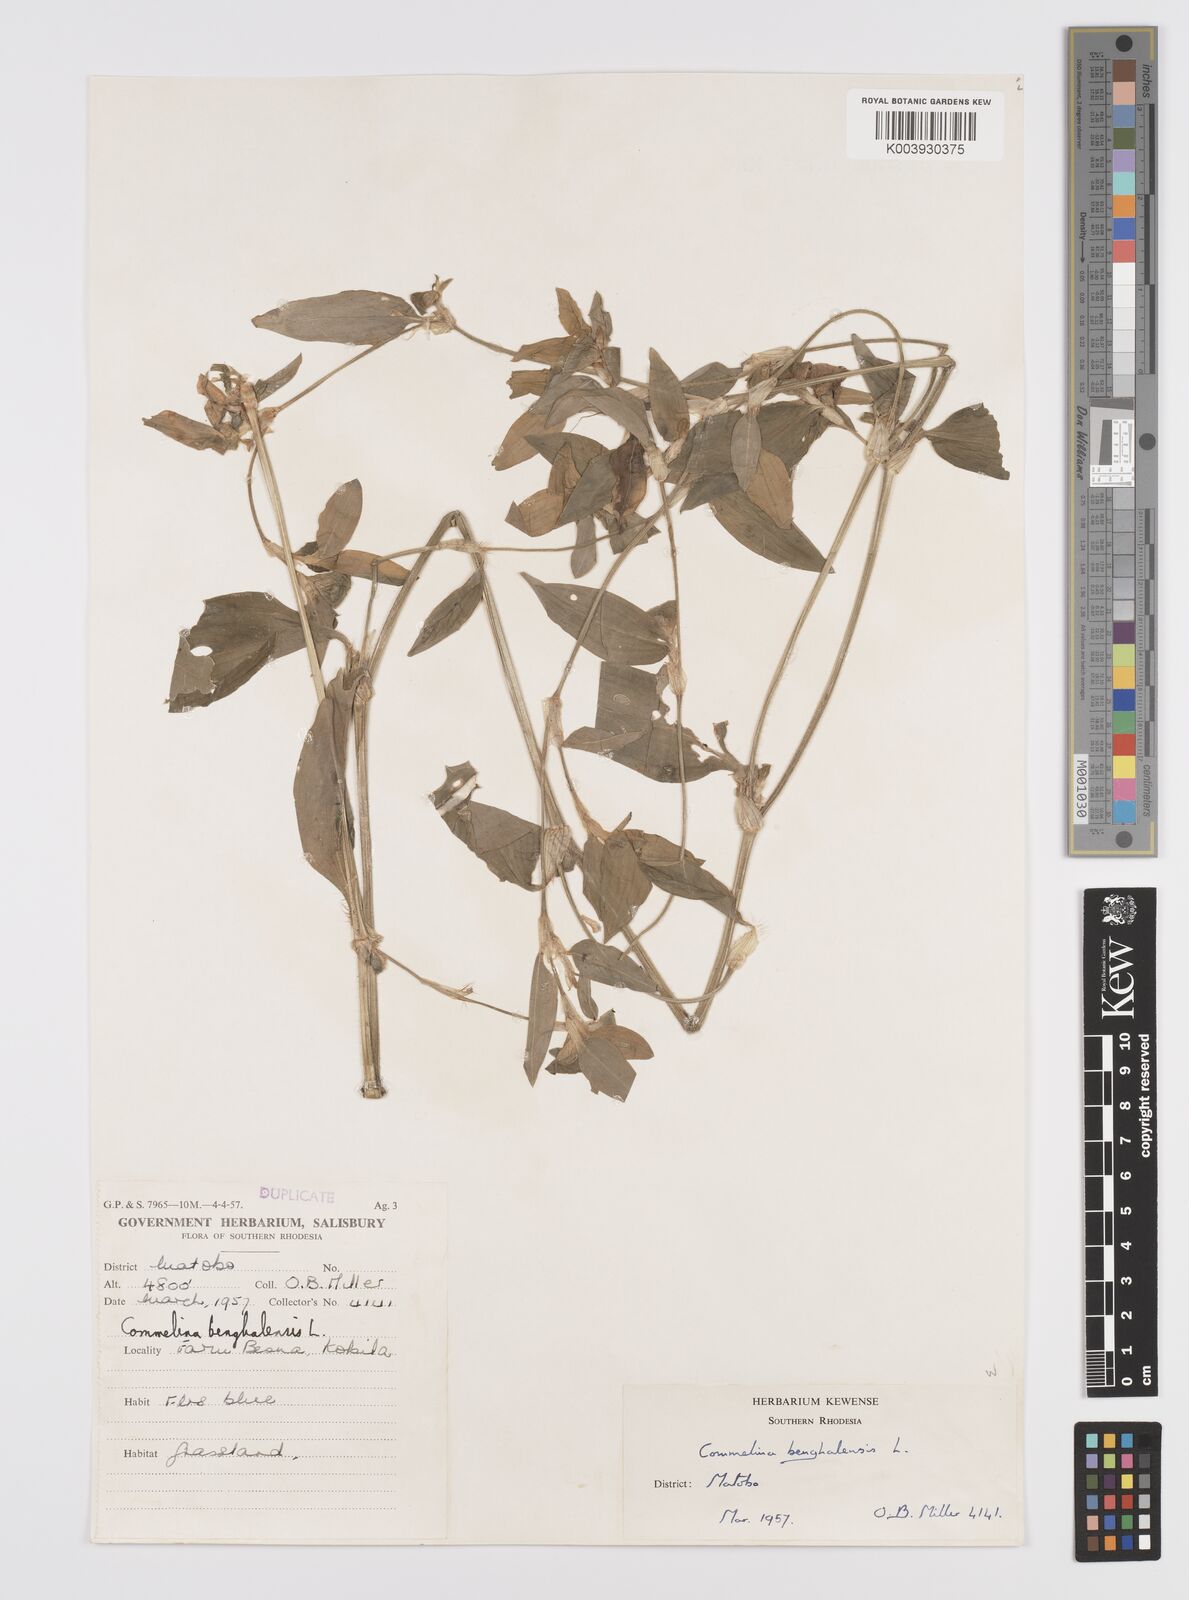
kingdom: Plantae
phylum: Tracheophyta
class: Liliopsida
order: Commelinales
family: Commelinaceae
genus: Commelina
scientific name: Commelina benghalensis
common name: Jio
